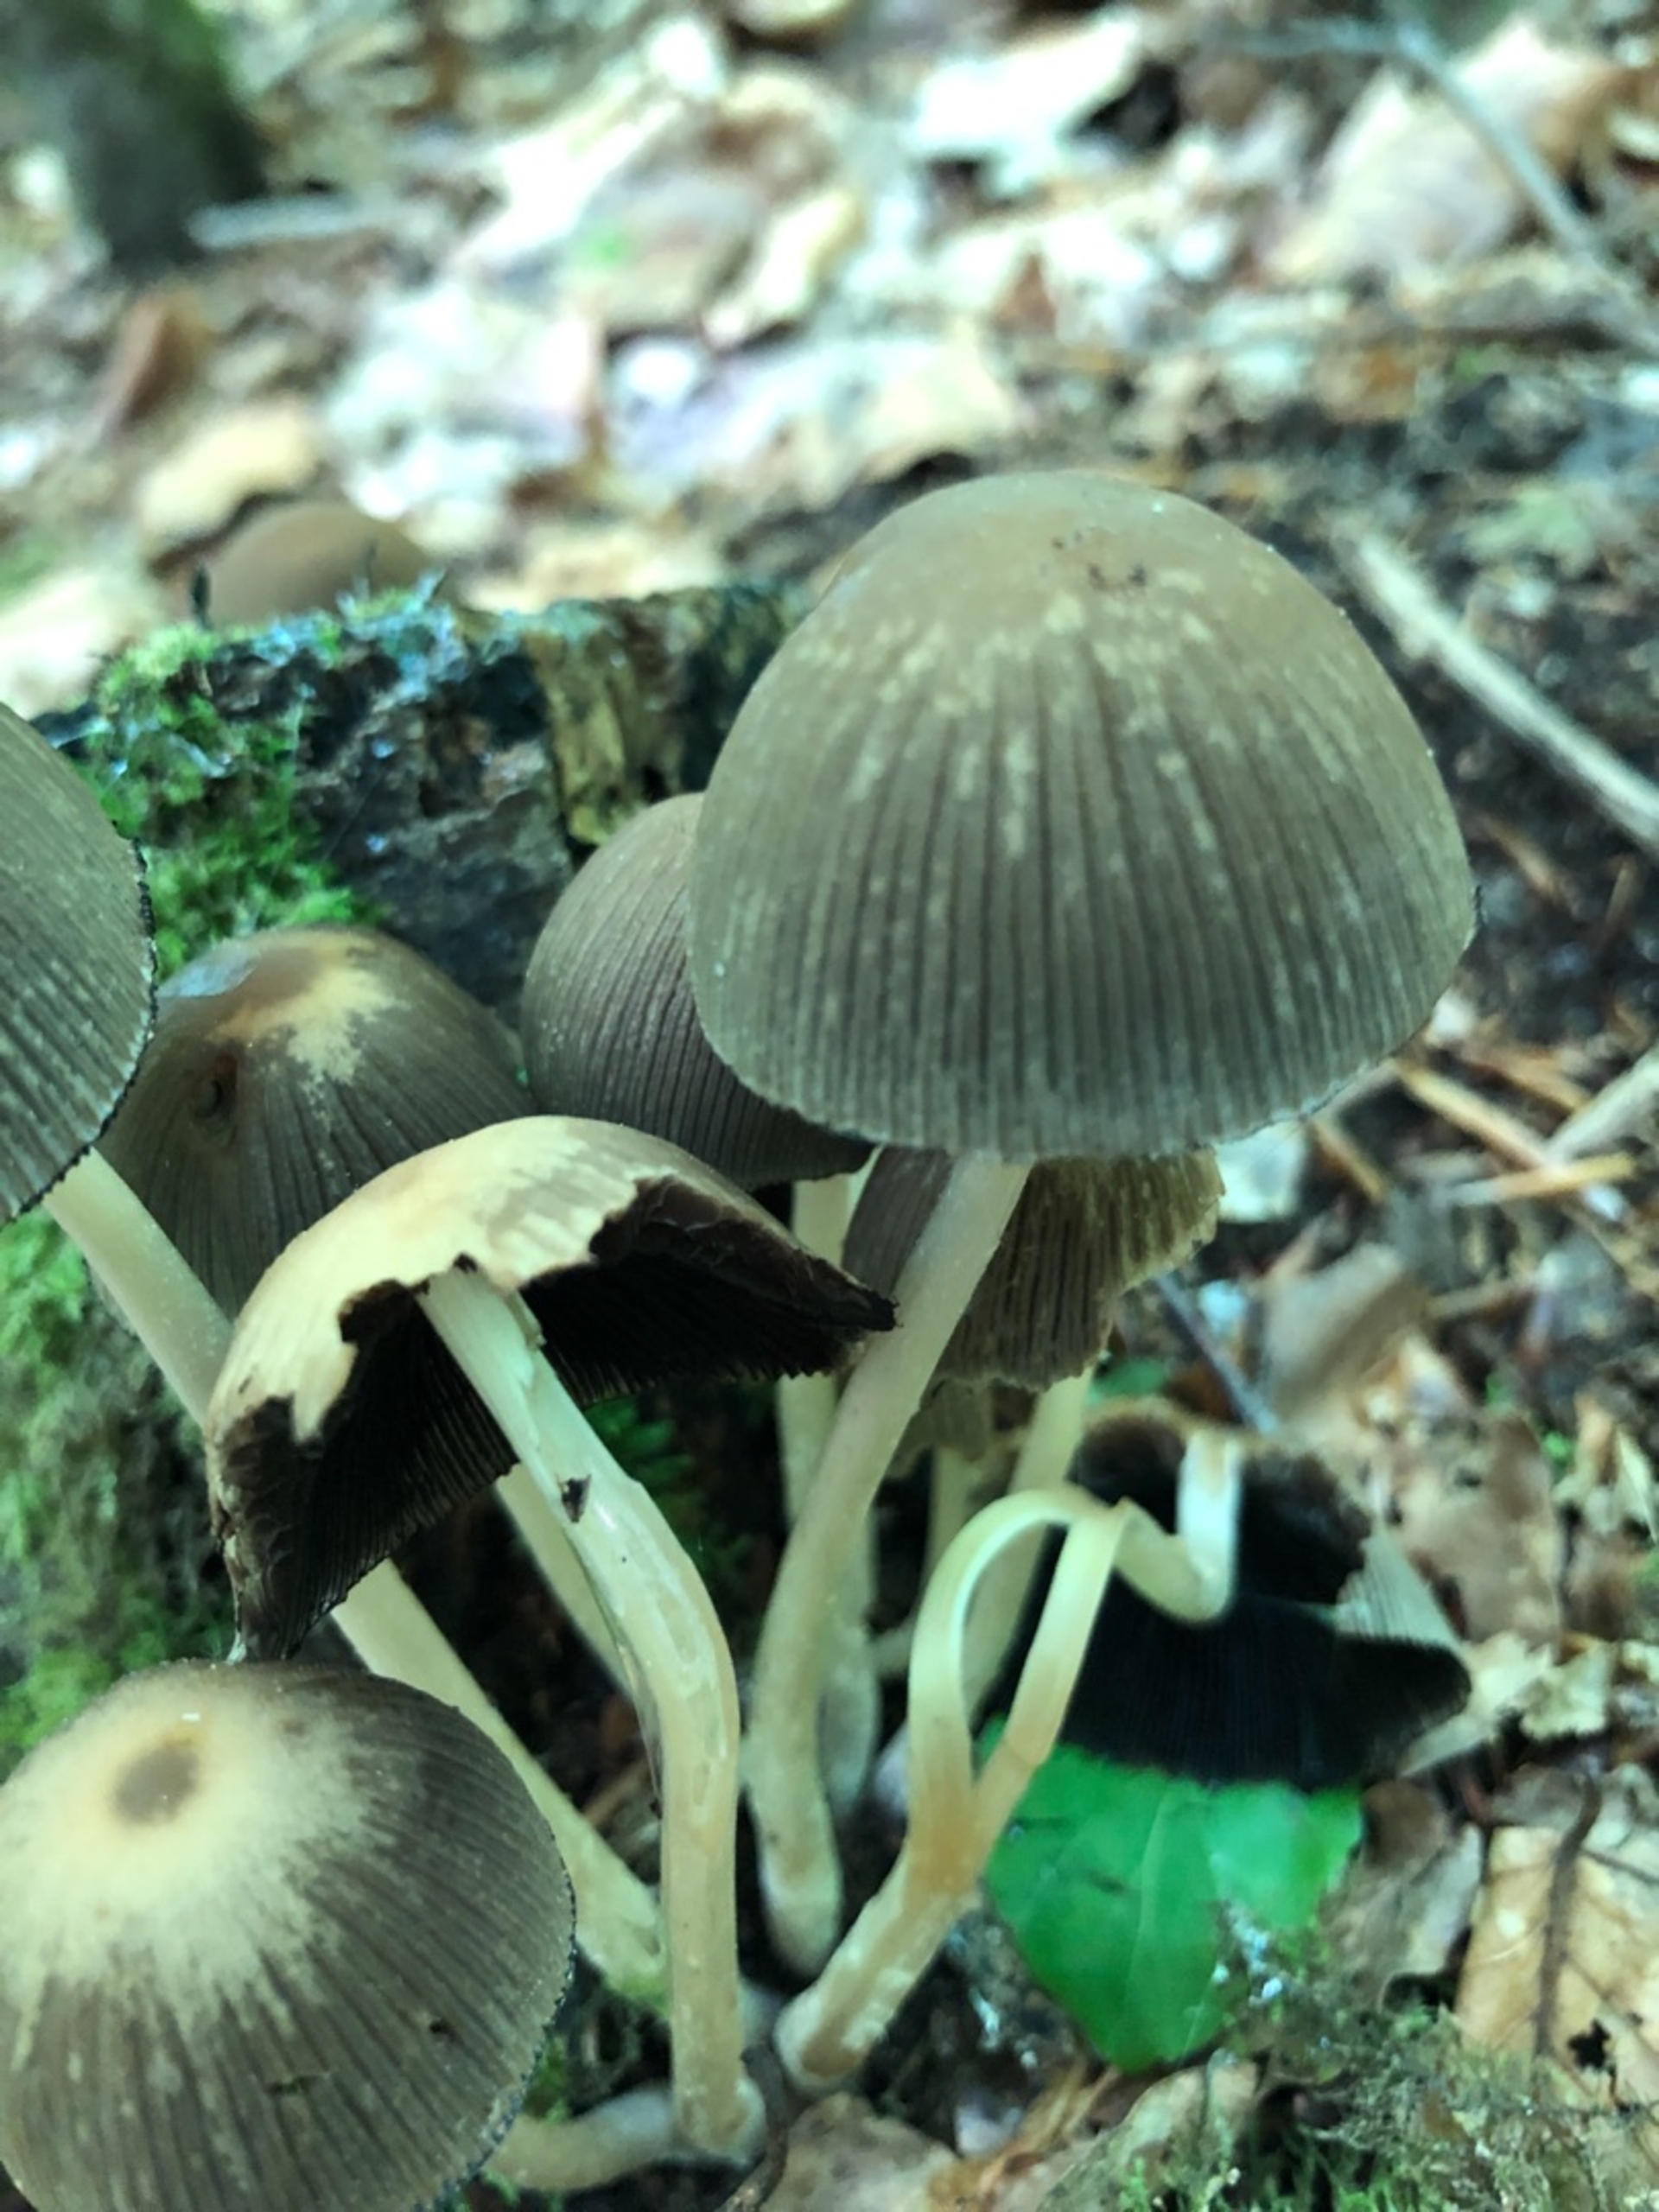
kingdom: Fungi
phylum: Basidiomycota
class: Agaricomycetes
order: Agaricales
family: Psathyrellaceae
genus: Coprinellus
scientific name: Coprinellus
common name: Blækhat
